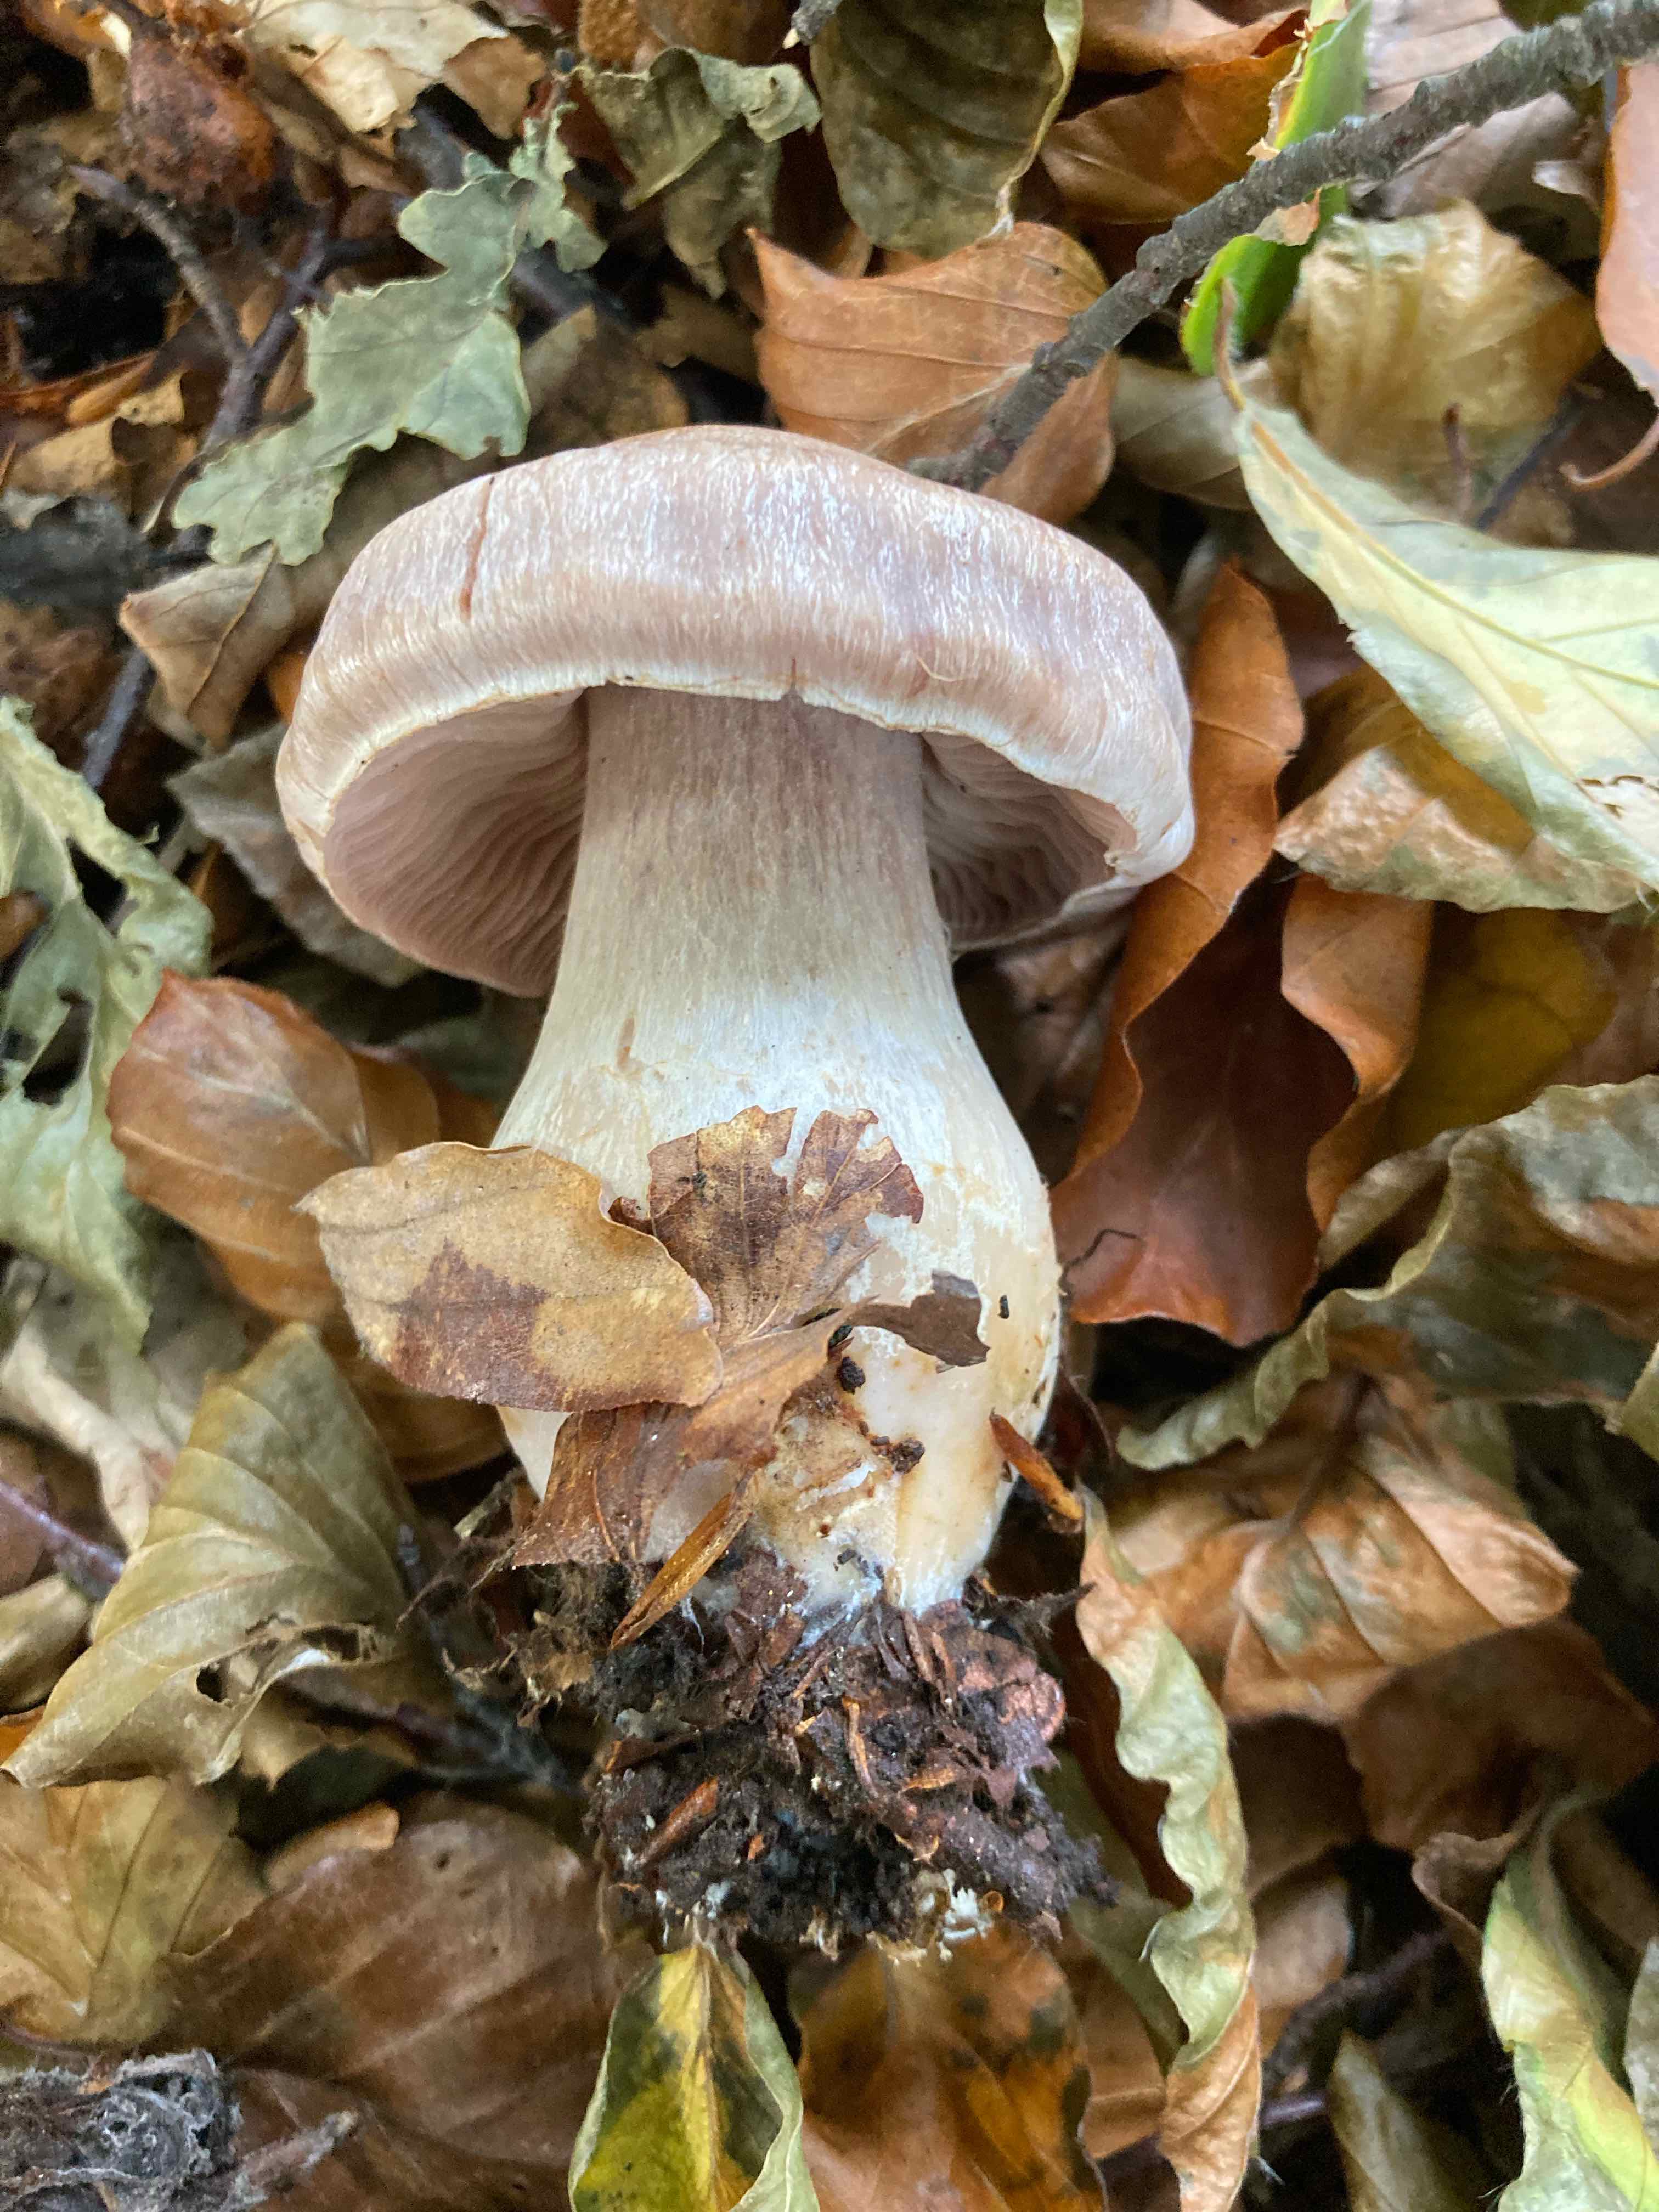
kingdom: Fungi
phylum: Basidiomycota
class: Agaricomycetes
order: Agaricales
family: Cortinariaceae
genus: Cortinarius
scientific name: Cortinarius
